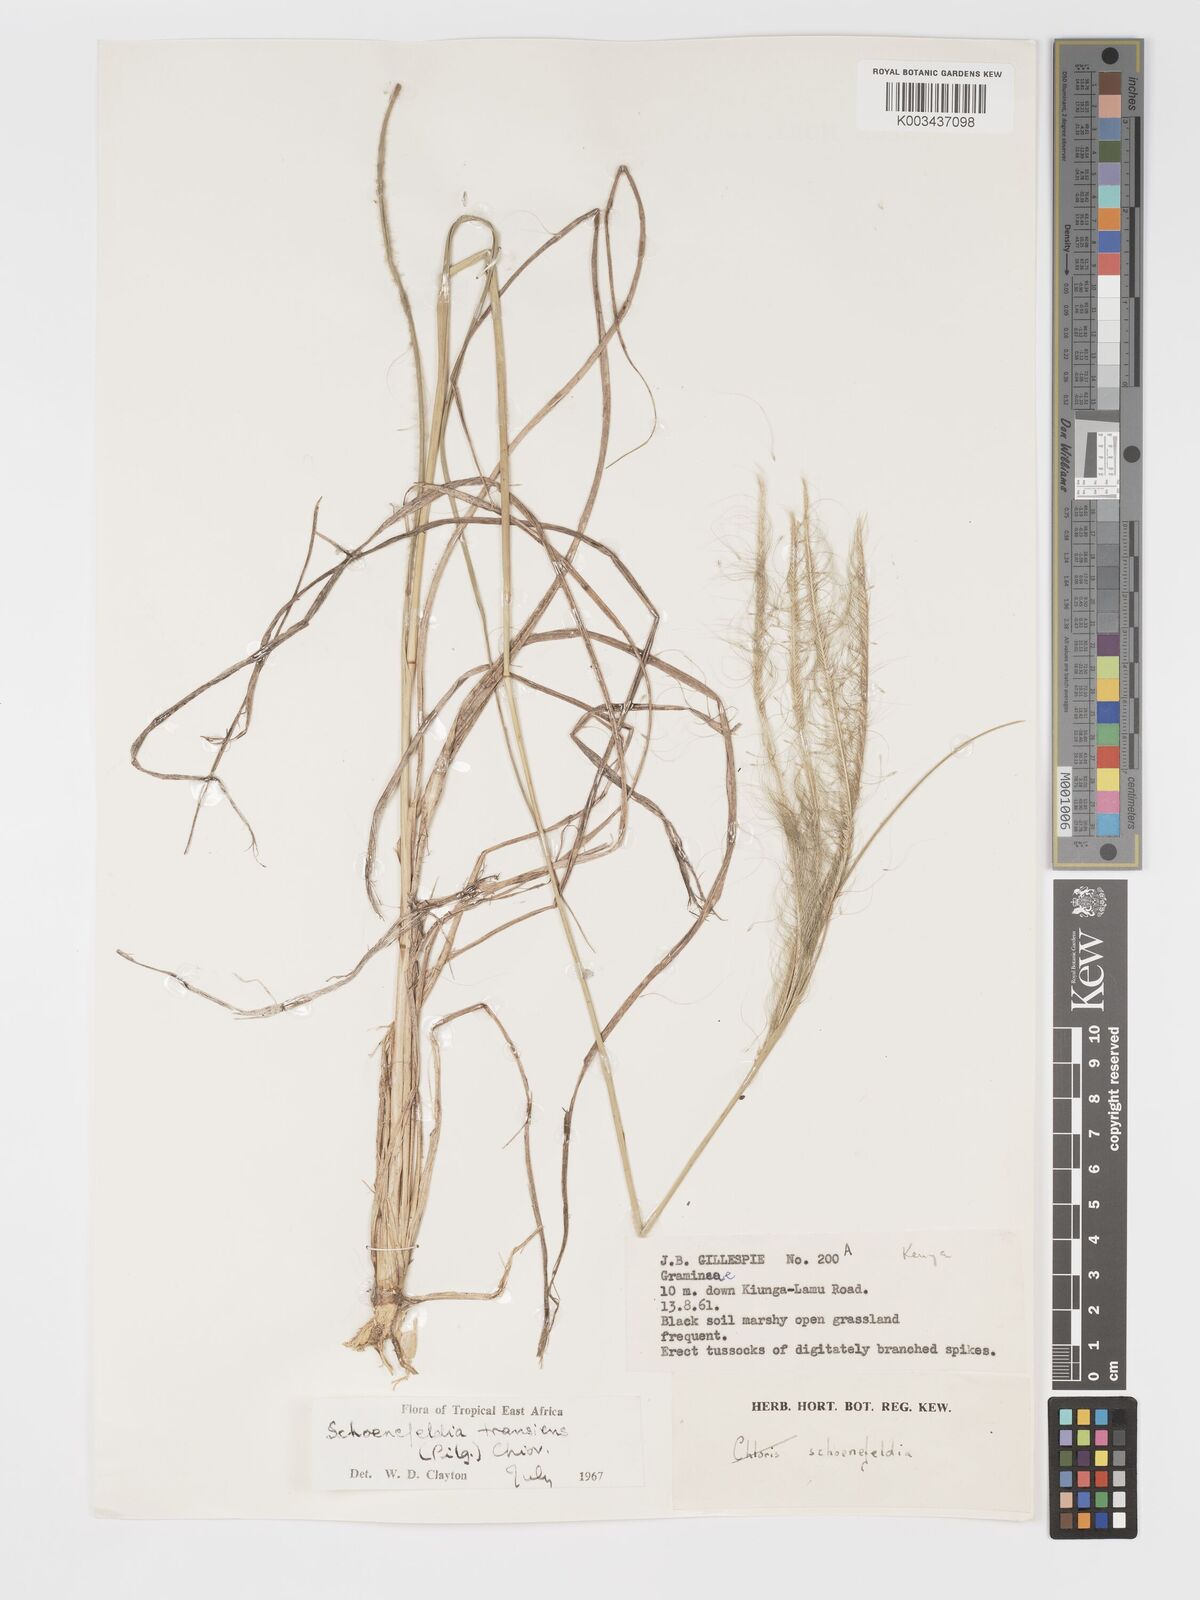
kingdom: Plantae
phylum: Tracheophyta
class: Liliopsida
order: Poales
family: Poaceae
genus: Schoenefeldia
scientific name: Schoenefeldia transiens
